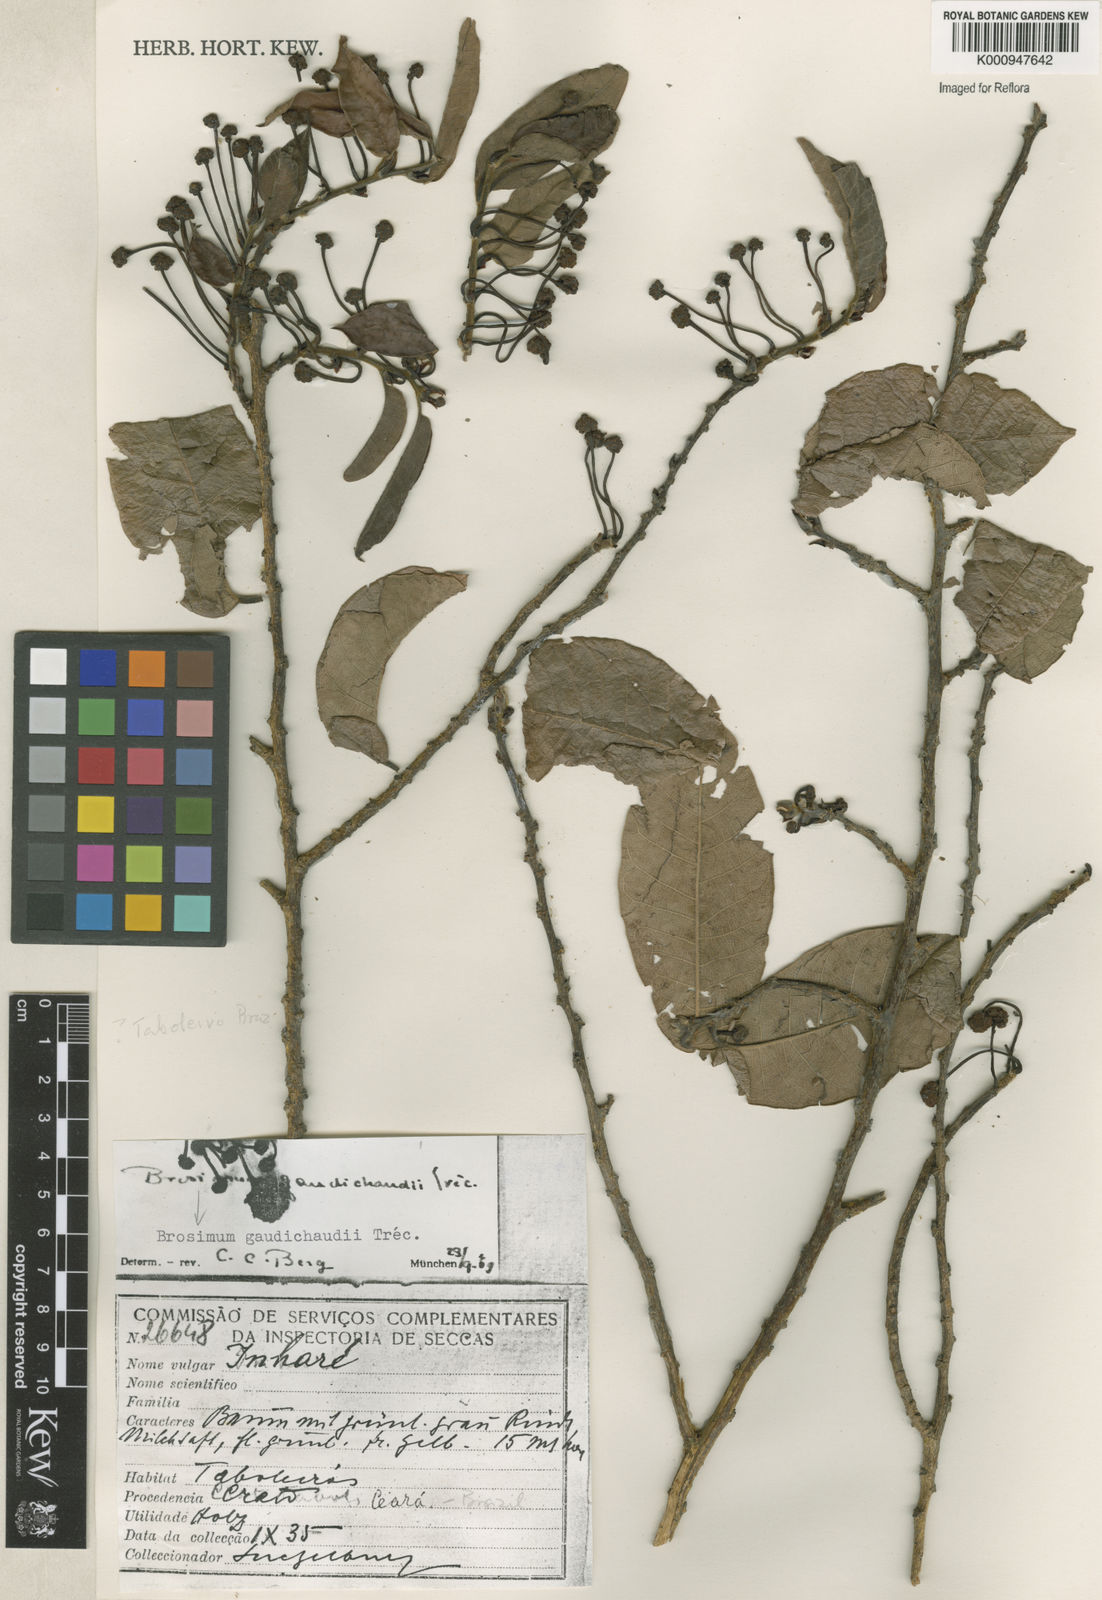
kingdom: Plantae
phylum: Tracheophyta
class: Magnoliopsida
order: Rosales
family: Moraceae
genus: Brosimum
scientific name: Brosimum
